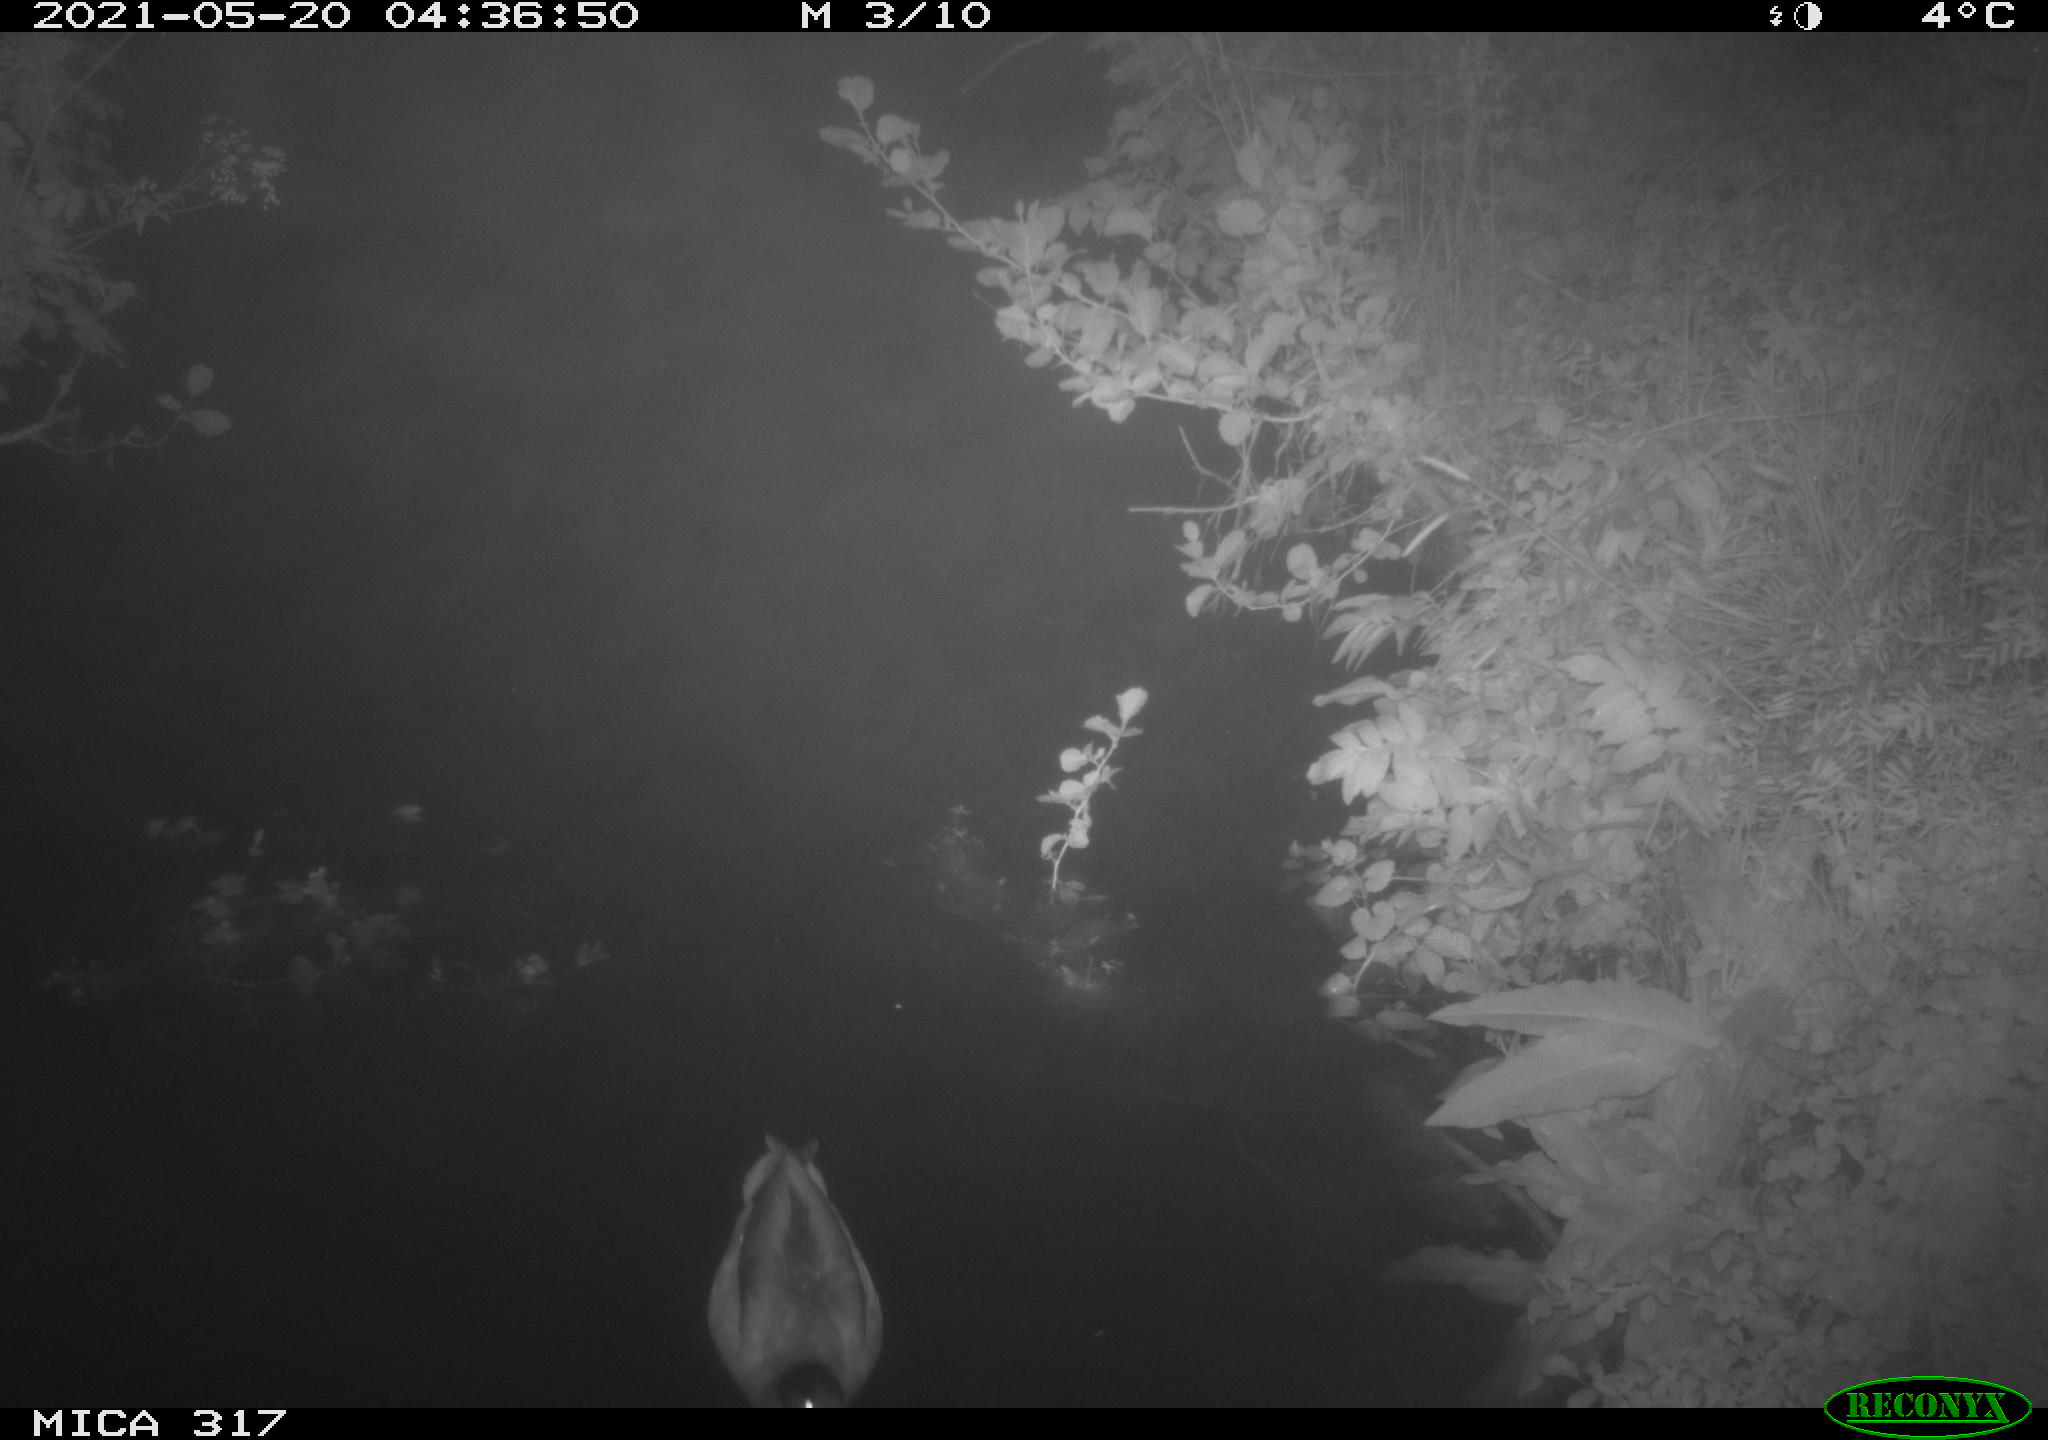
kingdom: Animalia
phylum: Chordata
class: Aves
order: Anseriformes
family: Anatidae
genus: Anas
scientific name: Anas
